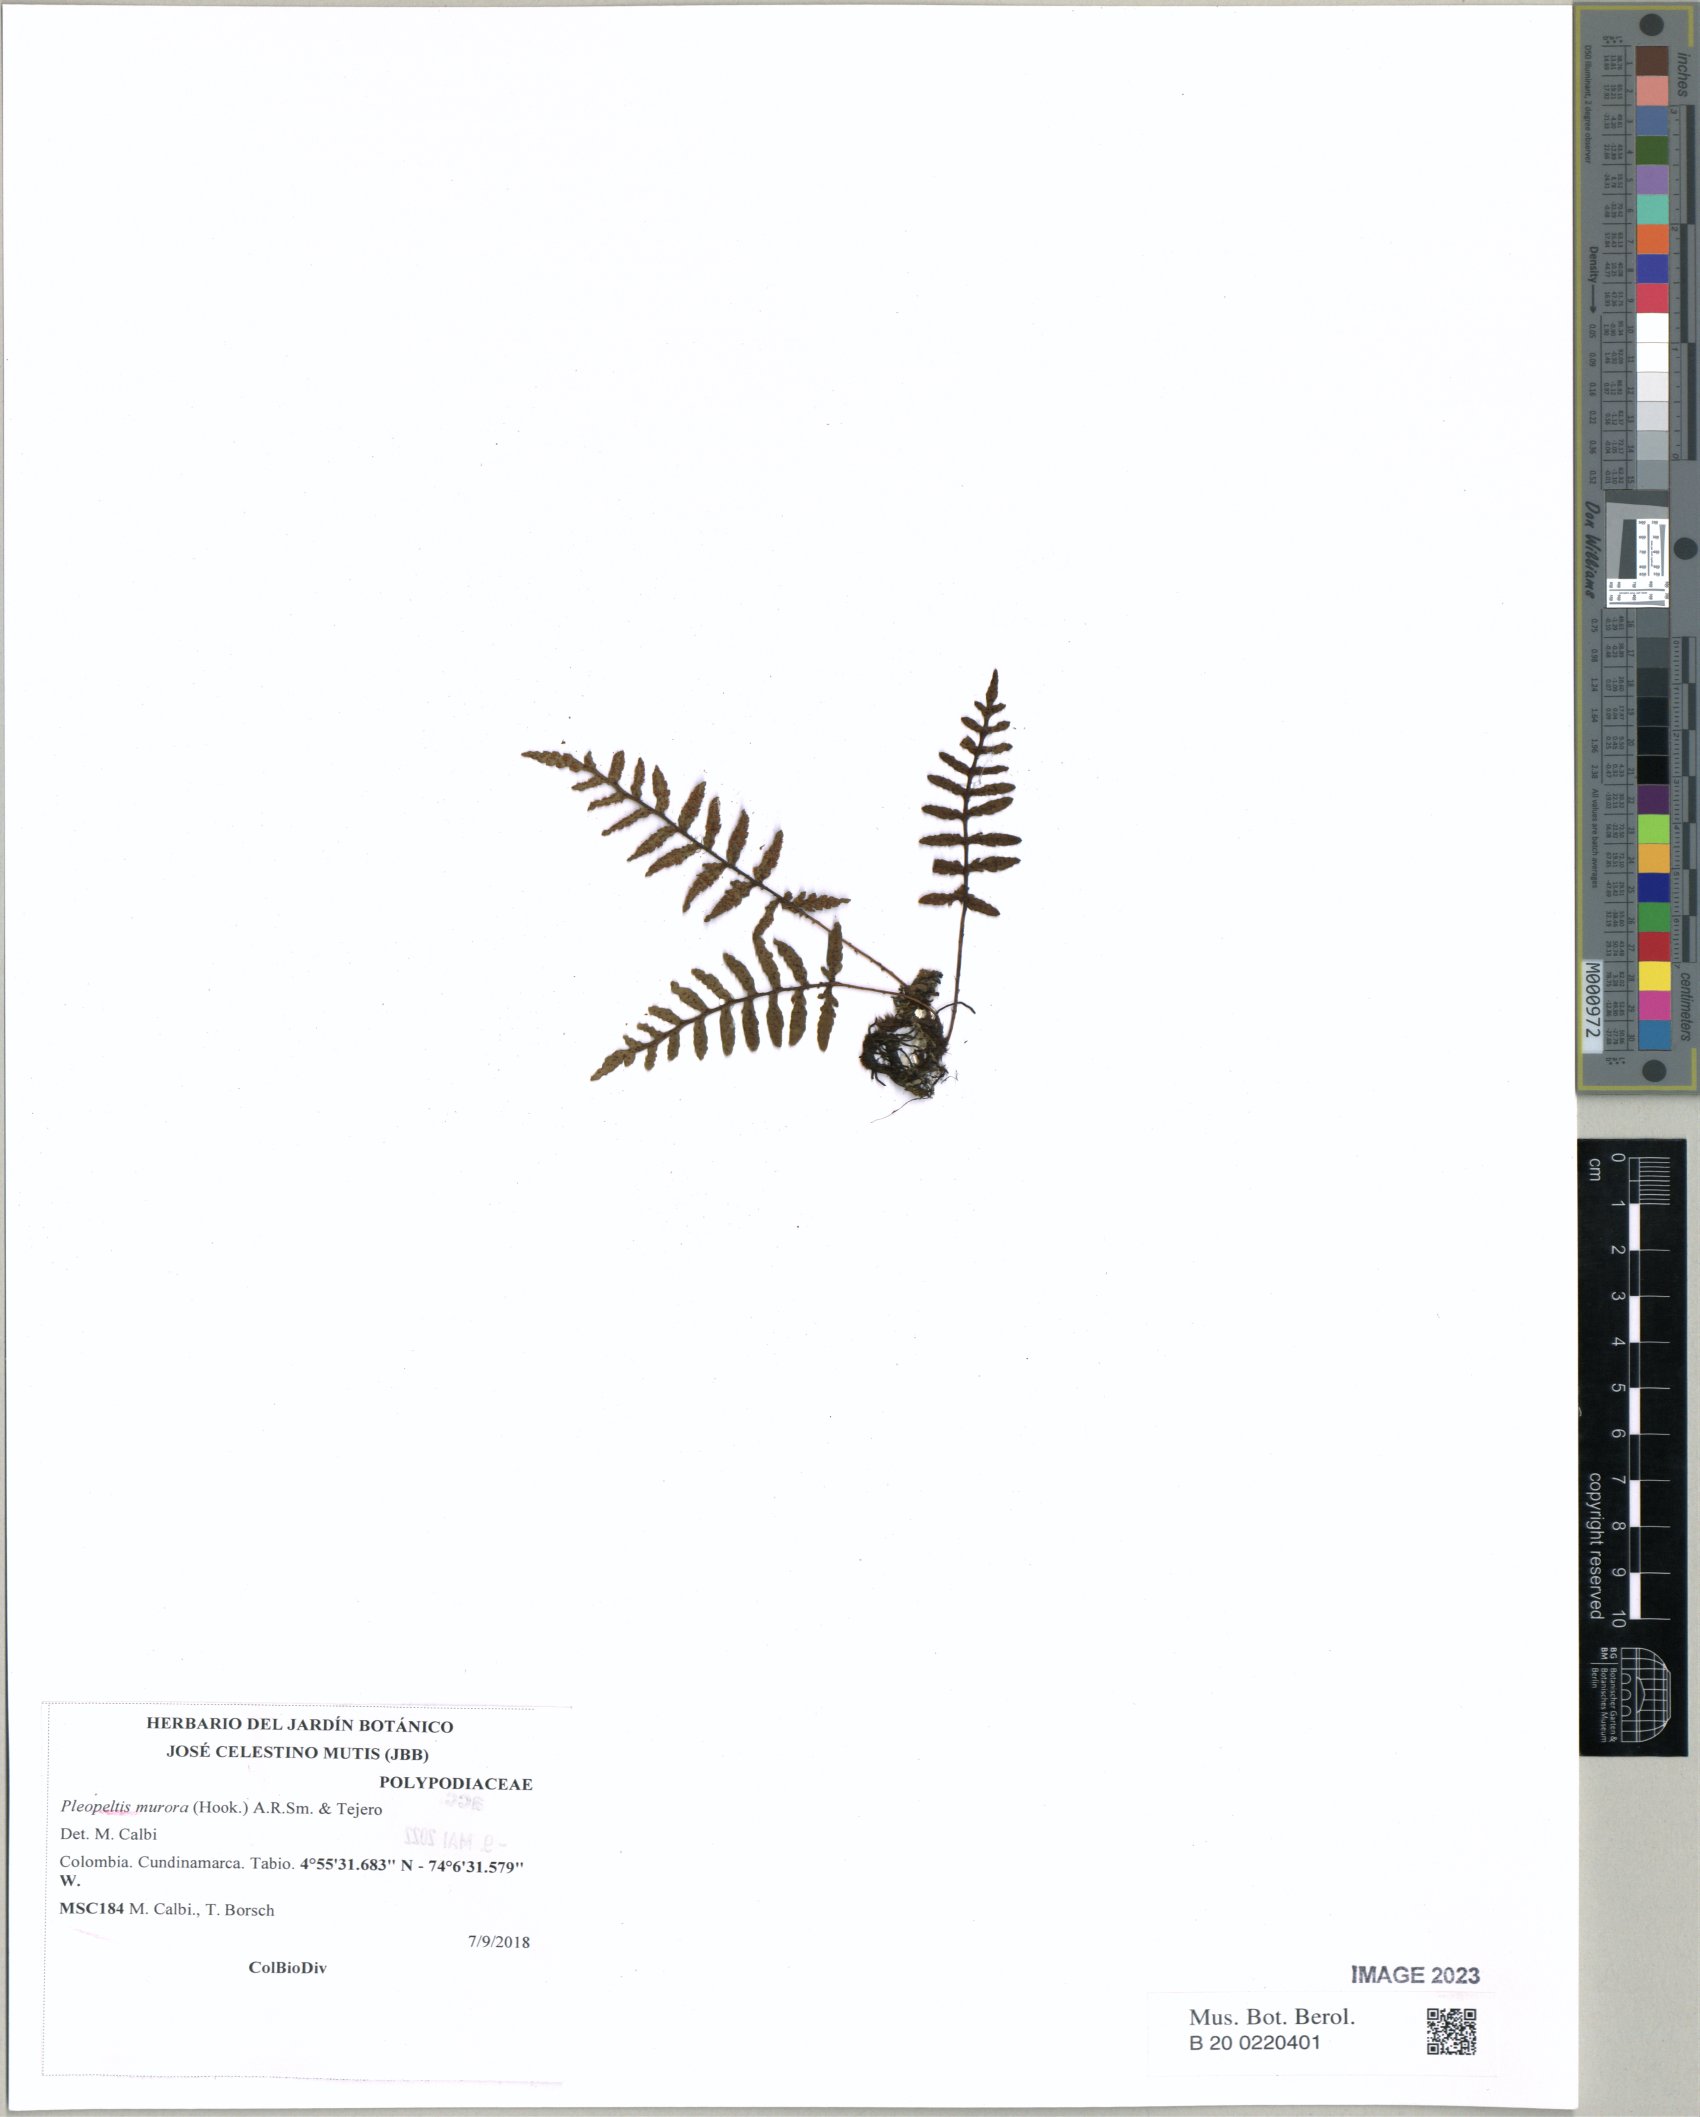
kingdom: Plantae
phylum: Tracheophyta
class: Polypodiopsida
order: Polypodiales
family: Polypodiaceae
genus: Pleopeltis
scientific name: Pleopeltis murora
